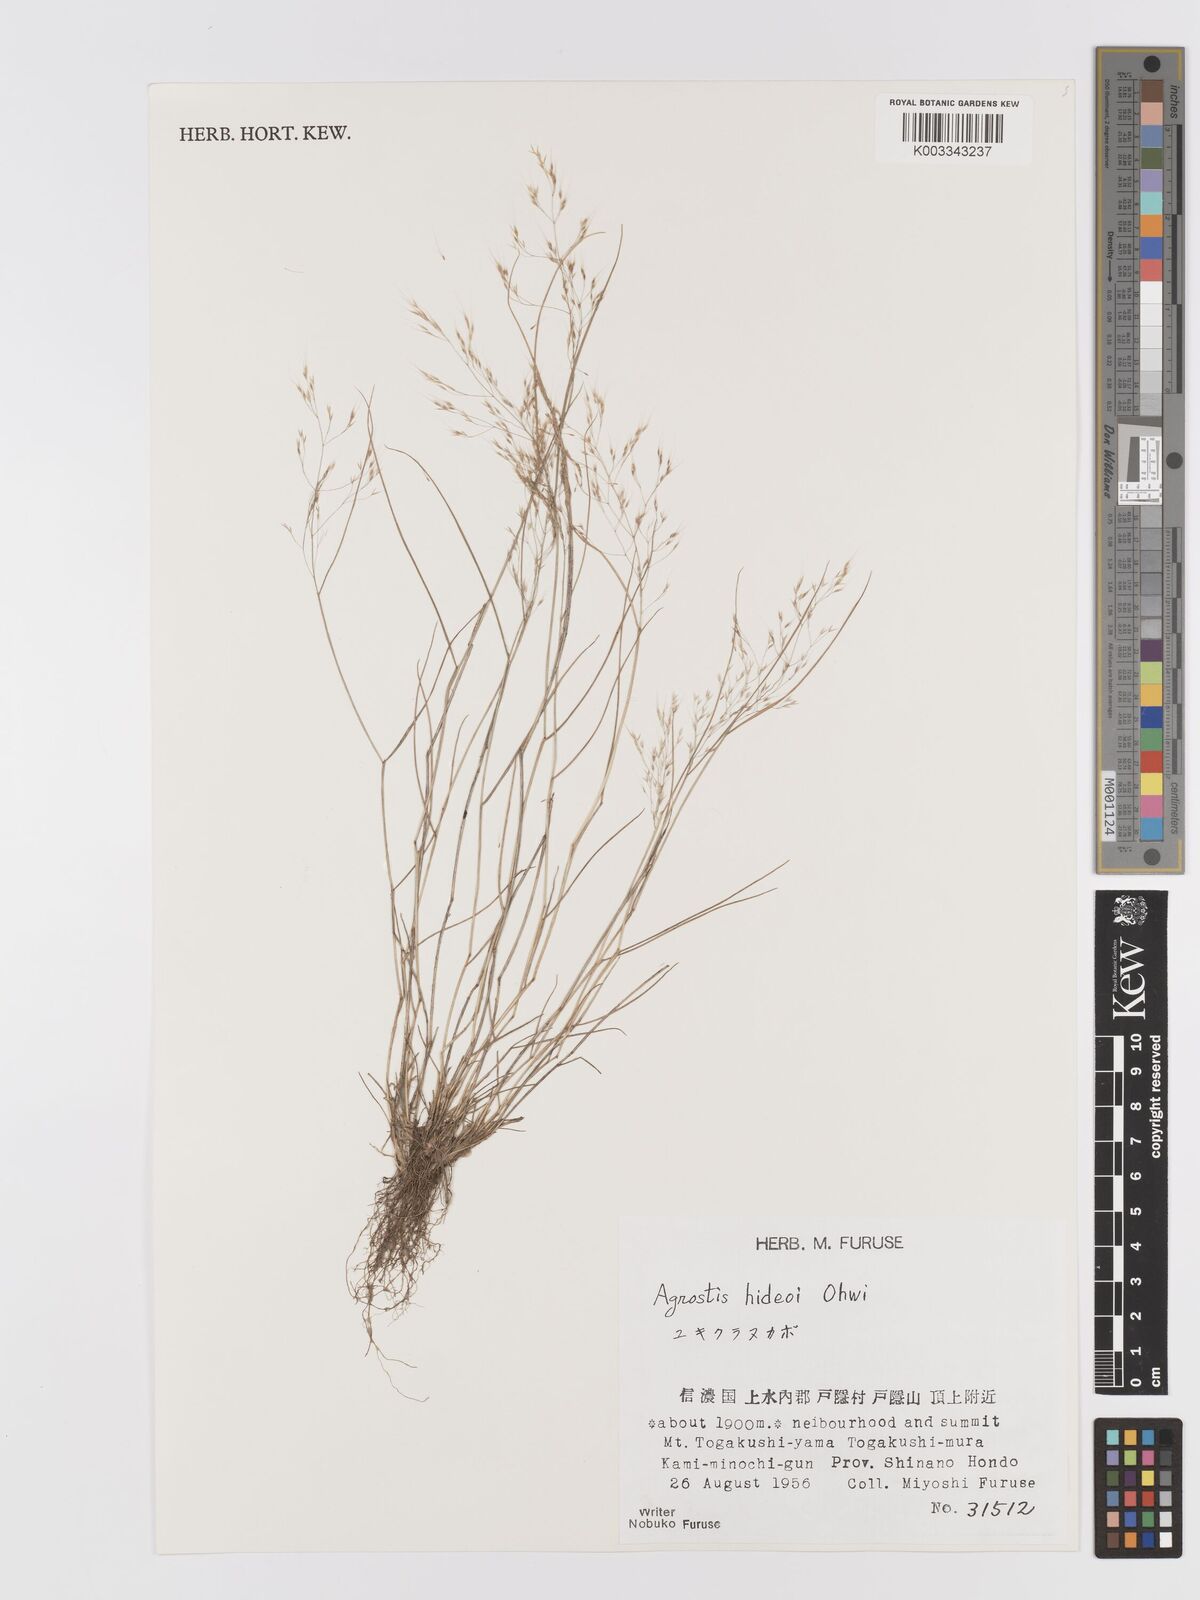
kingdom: Plantae
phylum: Tracheophyta
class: Liliopsida
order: Poales
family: Poaceae
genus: Agrostis
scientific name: Agrostis hideoi
